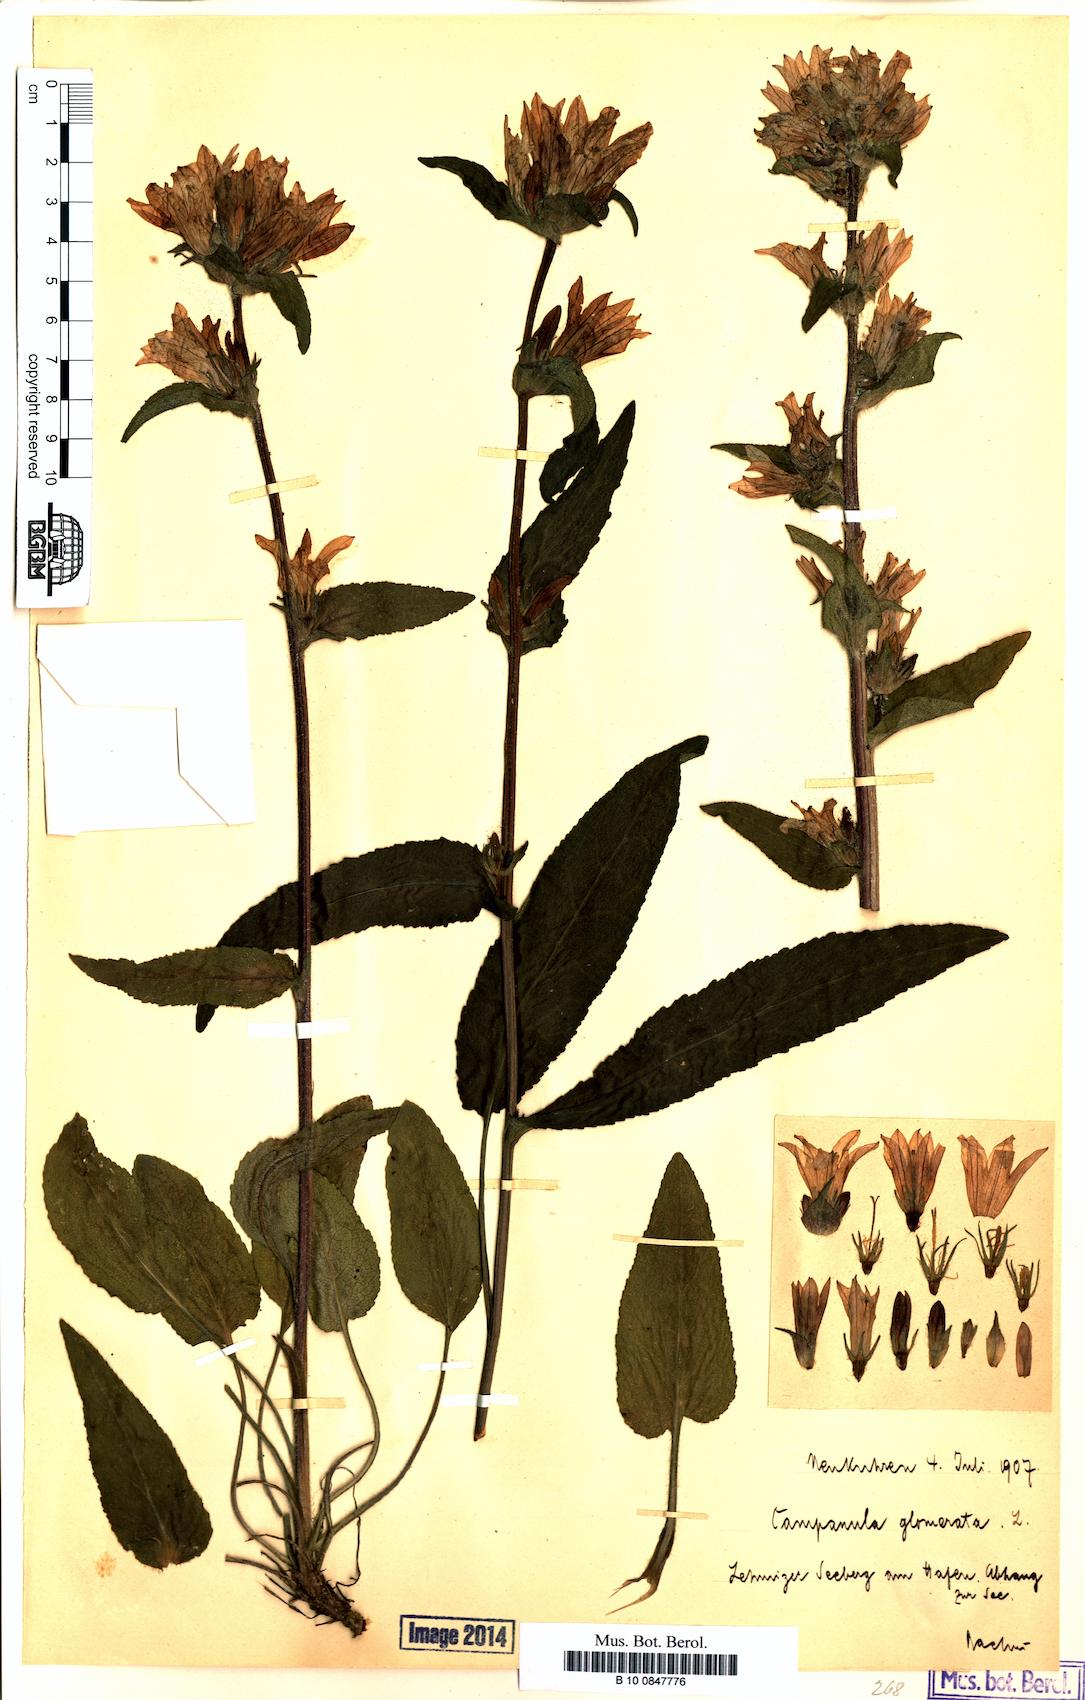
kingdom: Plantae
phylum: Tracheophyta
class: Magnoliopsida
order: Asterales
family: Campanulaceae
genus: Campanula
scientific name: Campanula glomerata
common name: Clustered bellflower
